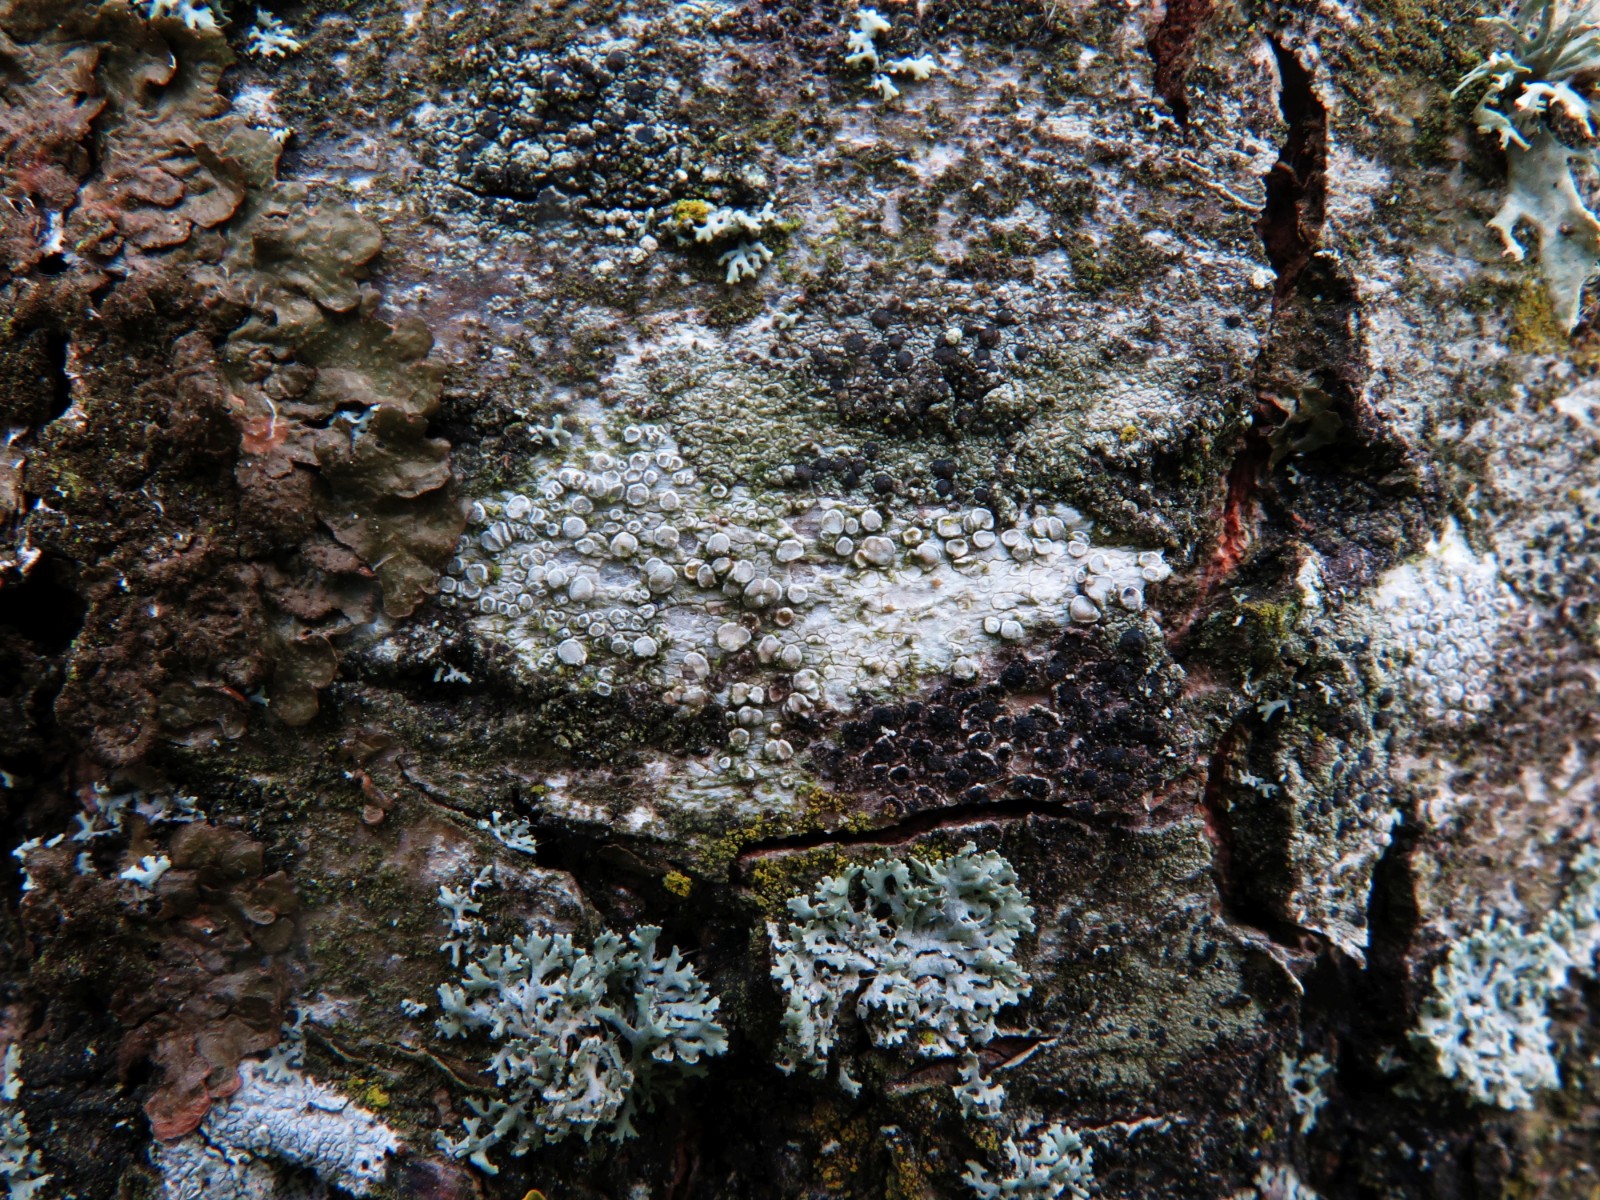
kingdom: Fungi
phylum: Ascomycota
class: Lecanoromycetes
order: Lecanorales
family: Lecanoraceae
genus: Glaucomaria
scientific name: Glaucomaria carpinea
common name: hviddugget kantskivelav
